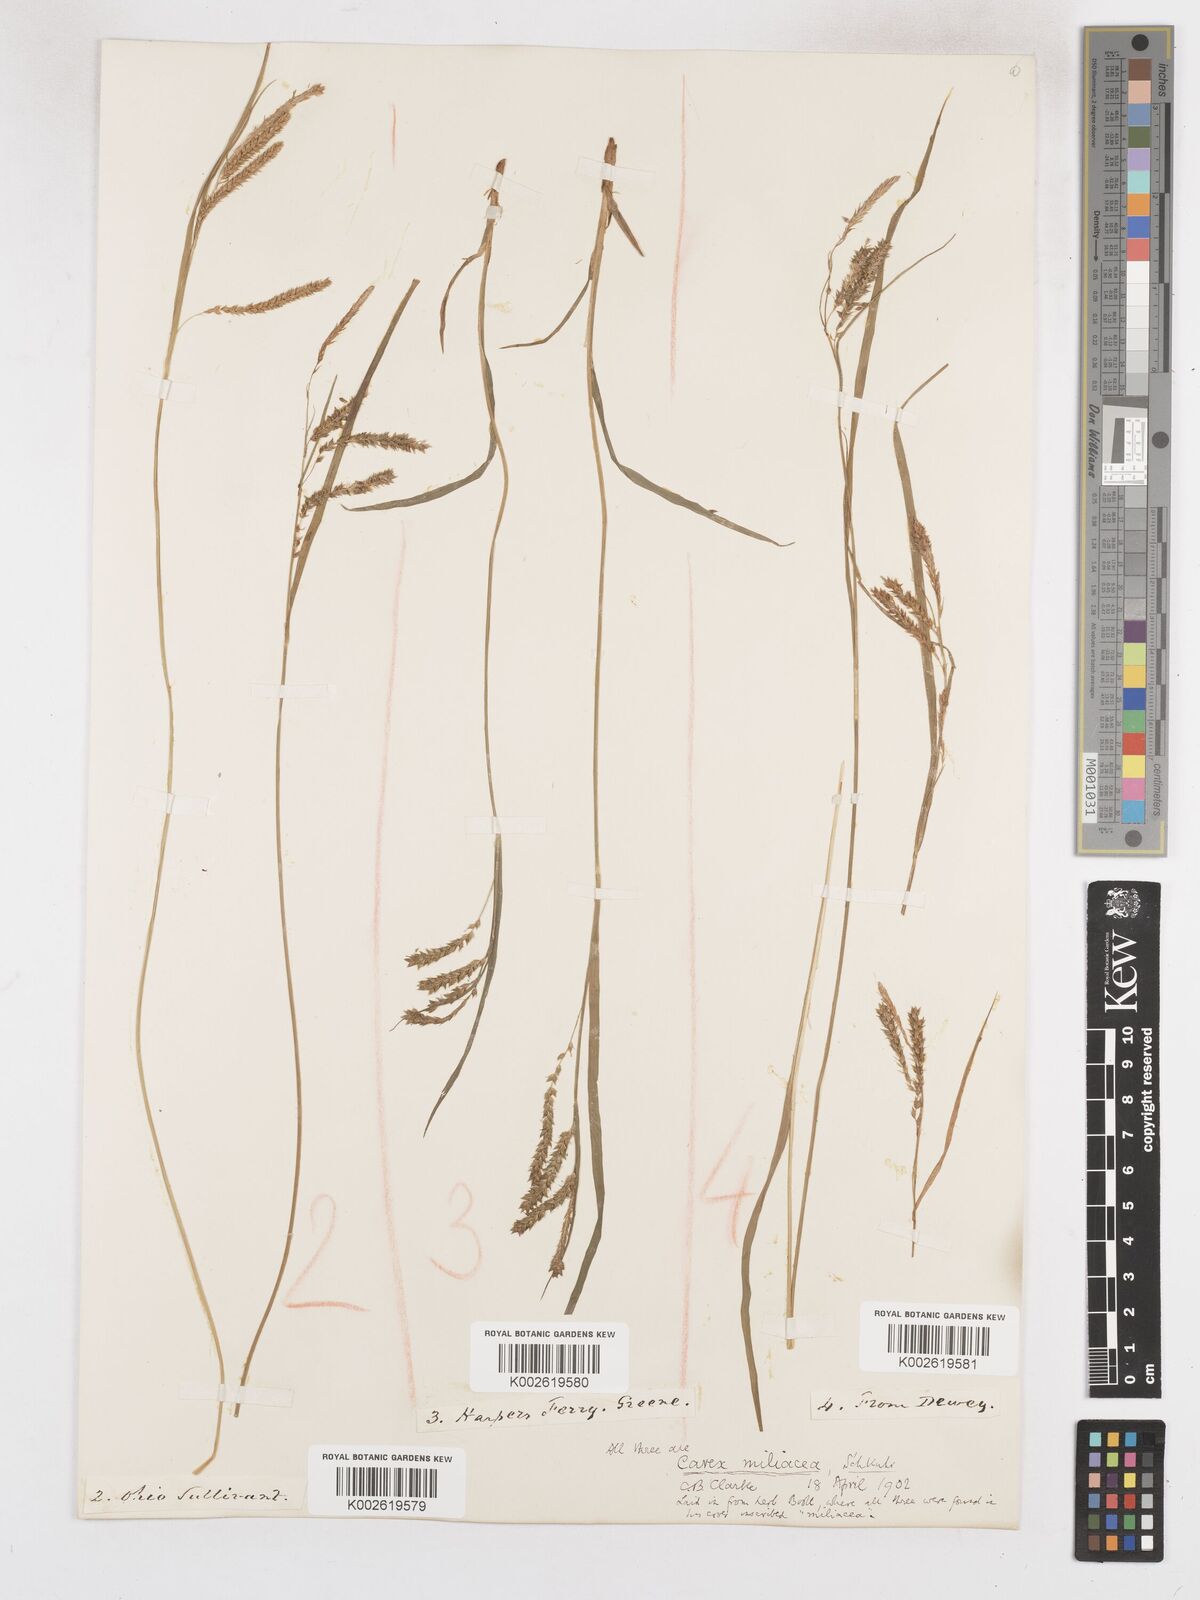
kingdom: Plantae
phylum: Tracheophyta
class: Liliopsida
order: Poales
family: Cyperaceae
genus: Carex
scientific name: Carex prasina
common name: Drooping sedge
